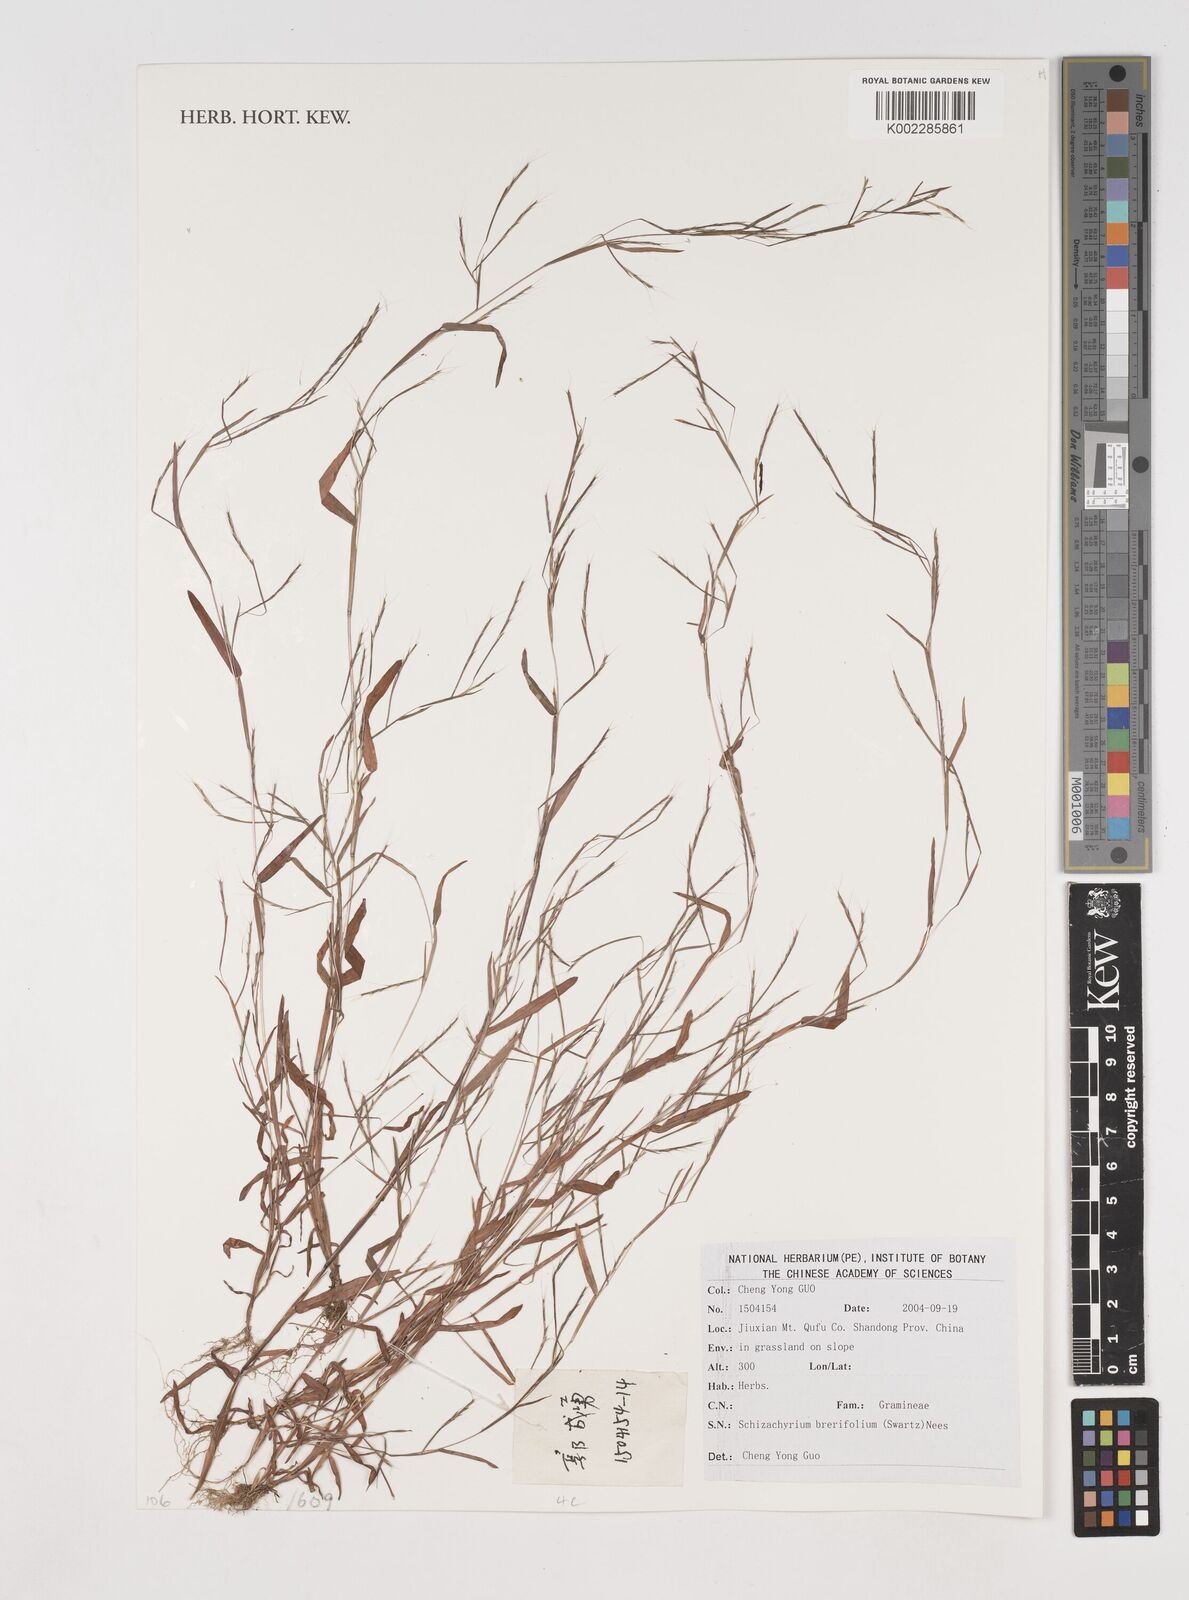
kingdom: Plantae
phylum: Tracheophyta
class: Liliopsida
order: Poales
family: Poaceae
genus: Schizachyrium
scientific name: Schizachyrium brevifolium
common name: Serillo dulce
